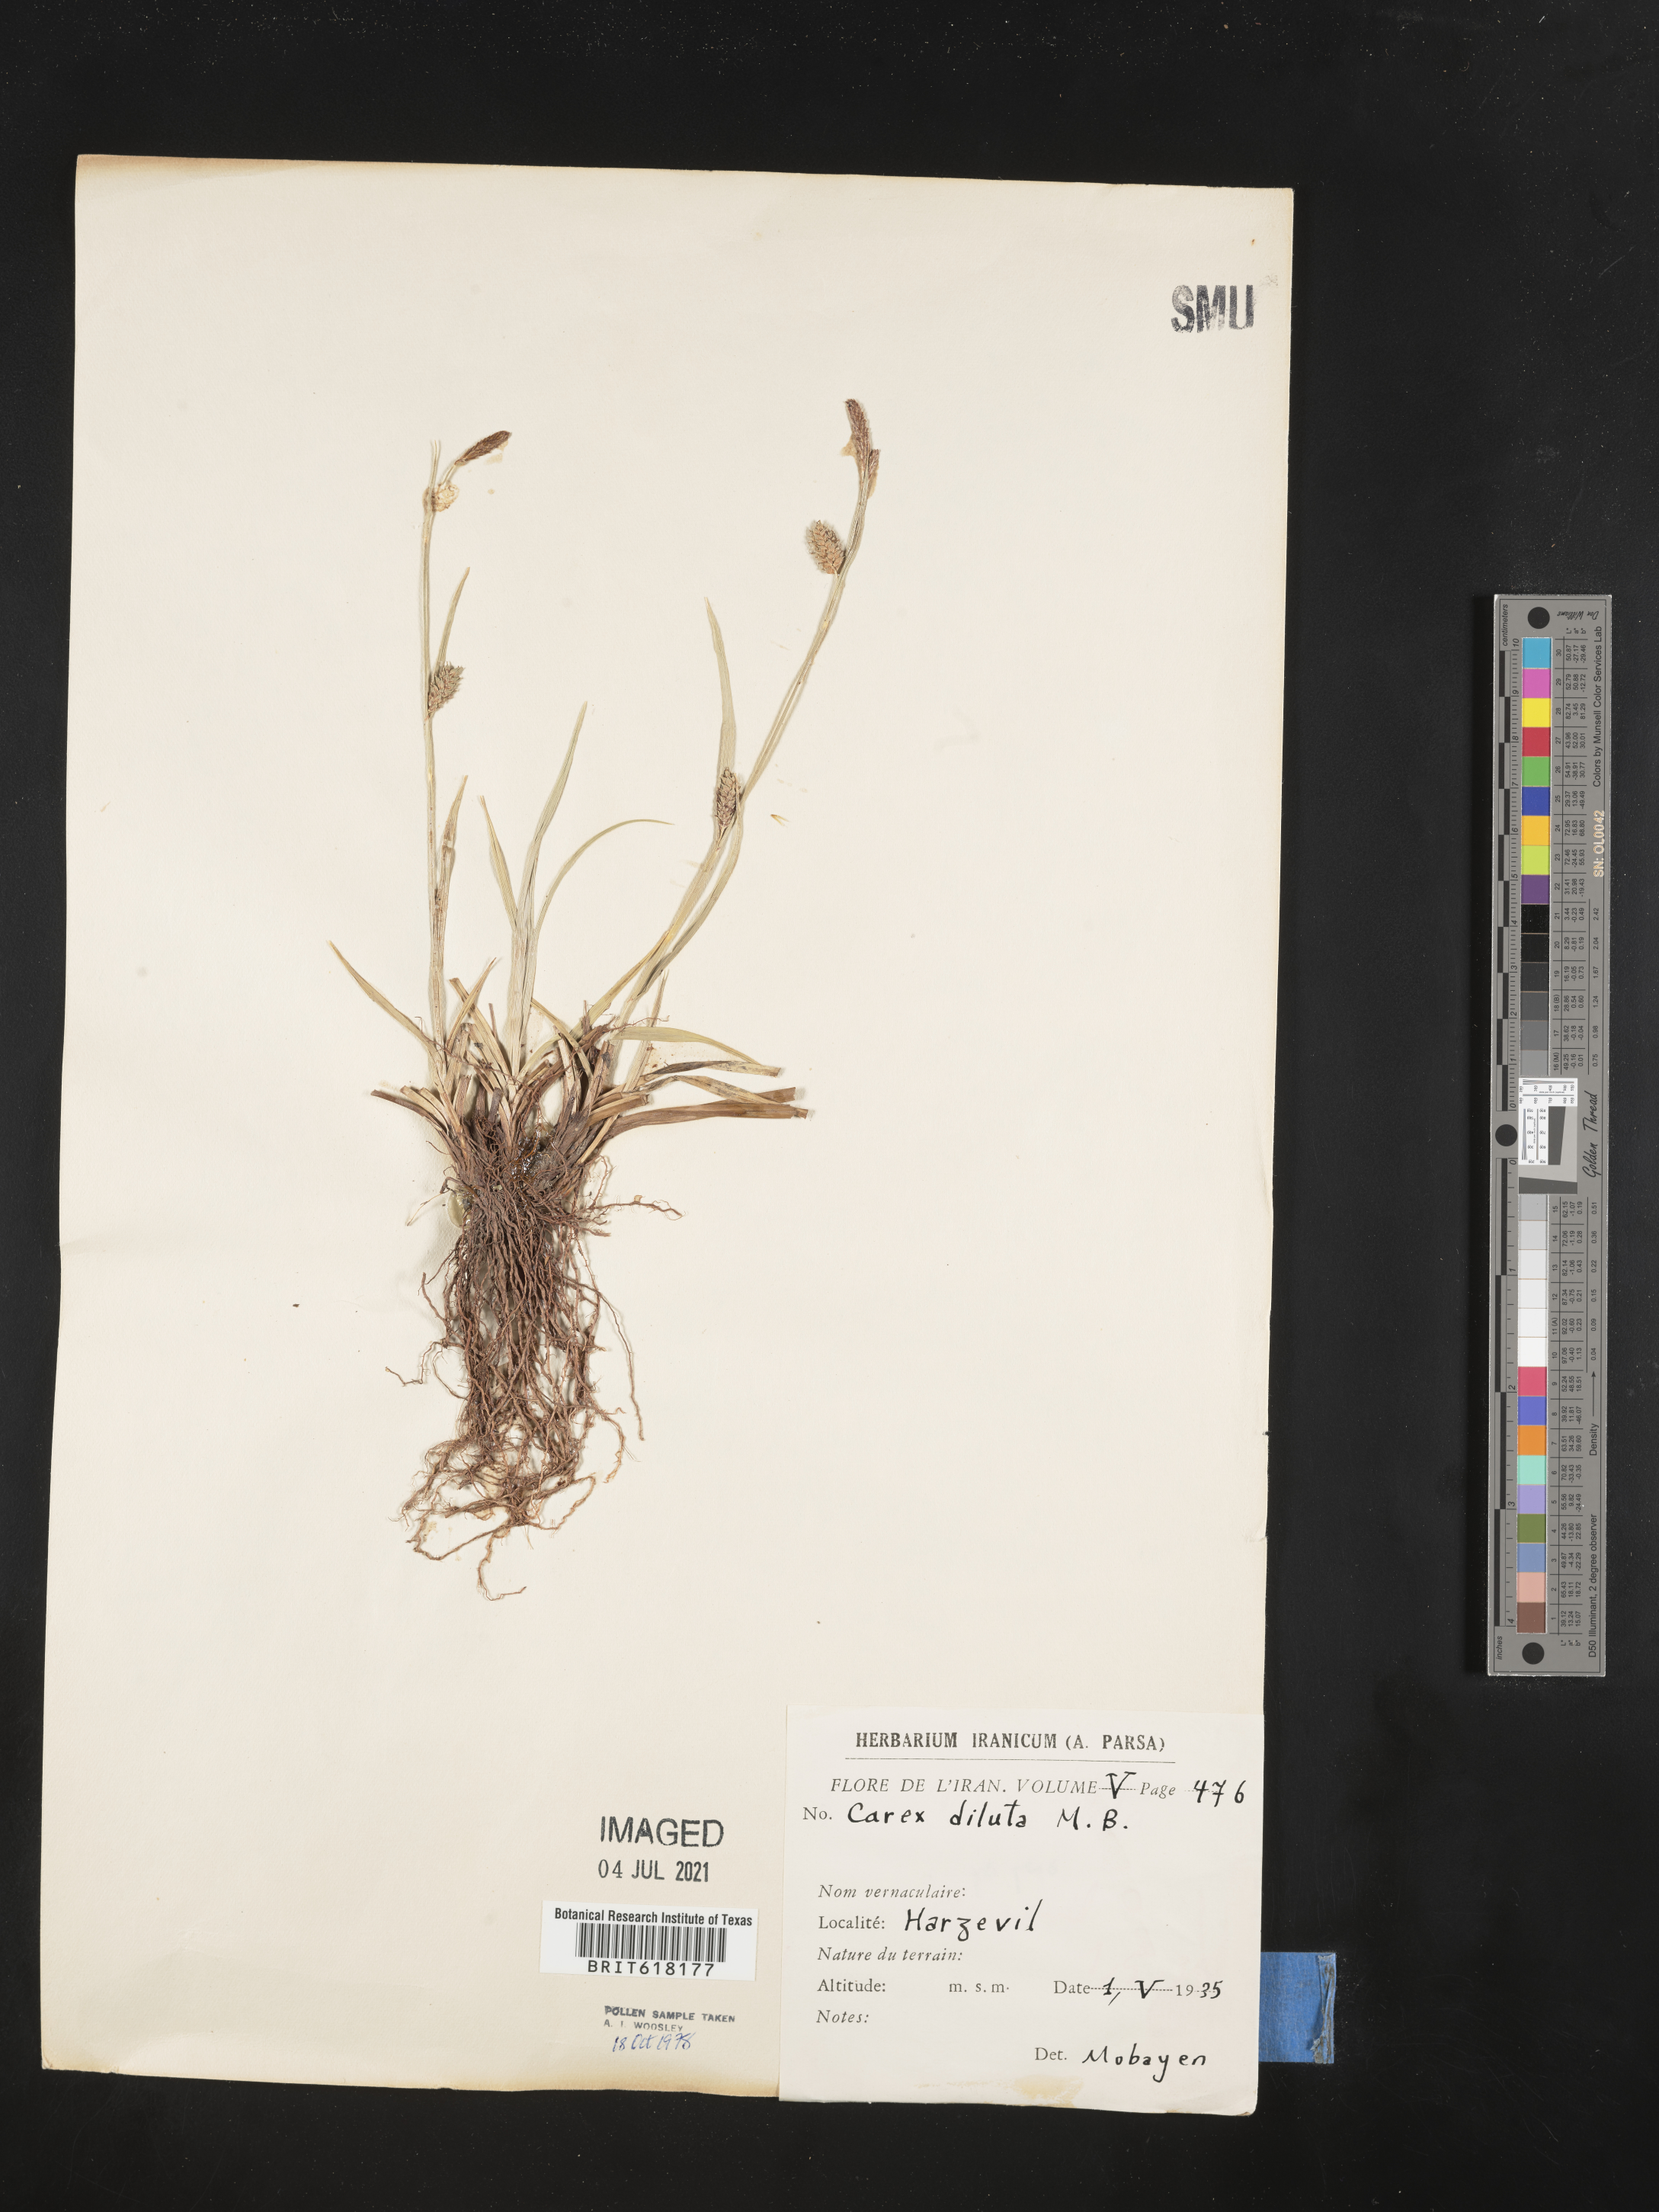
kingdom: Plantae
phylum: Tracheophyta
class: Liliopsida
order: Poales
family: Cyperaceae
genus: Carex
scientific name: Carex diluta
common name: Sedge
